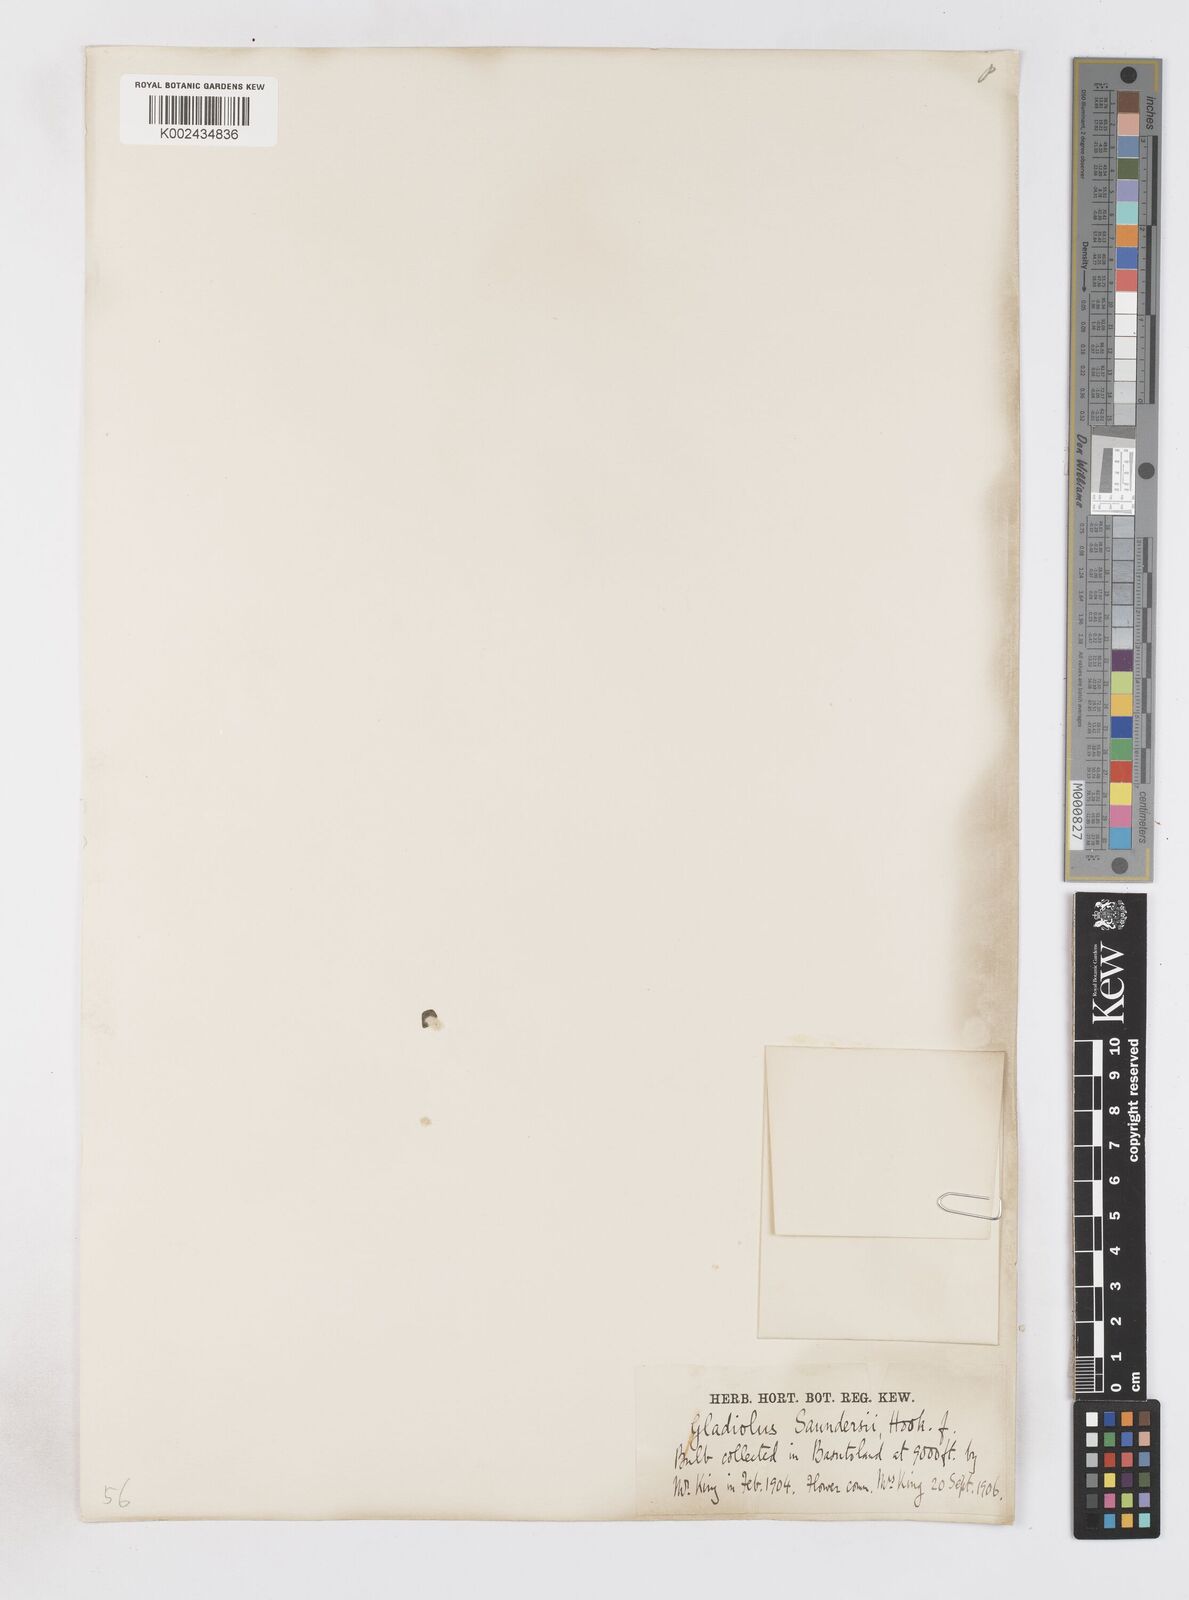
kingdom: Plantae
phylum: Tracheophyta
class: Liliopsida
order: Asparagales
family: Iridaceae
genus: Gladiolus
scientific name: Gladiolus saundersii
